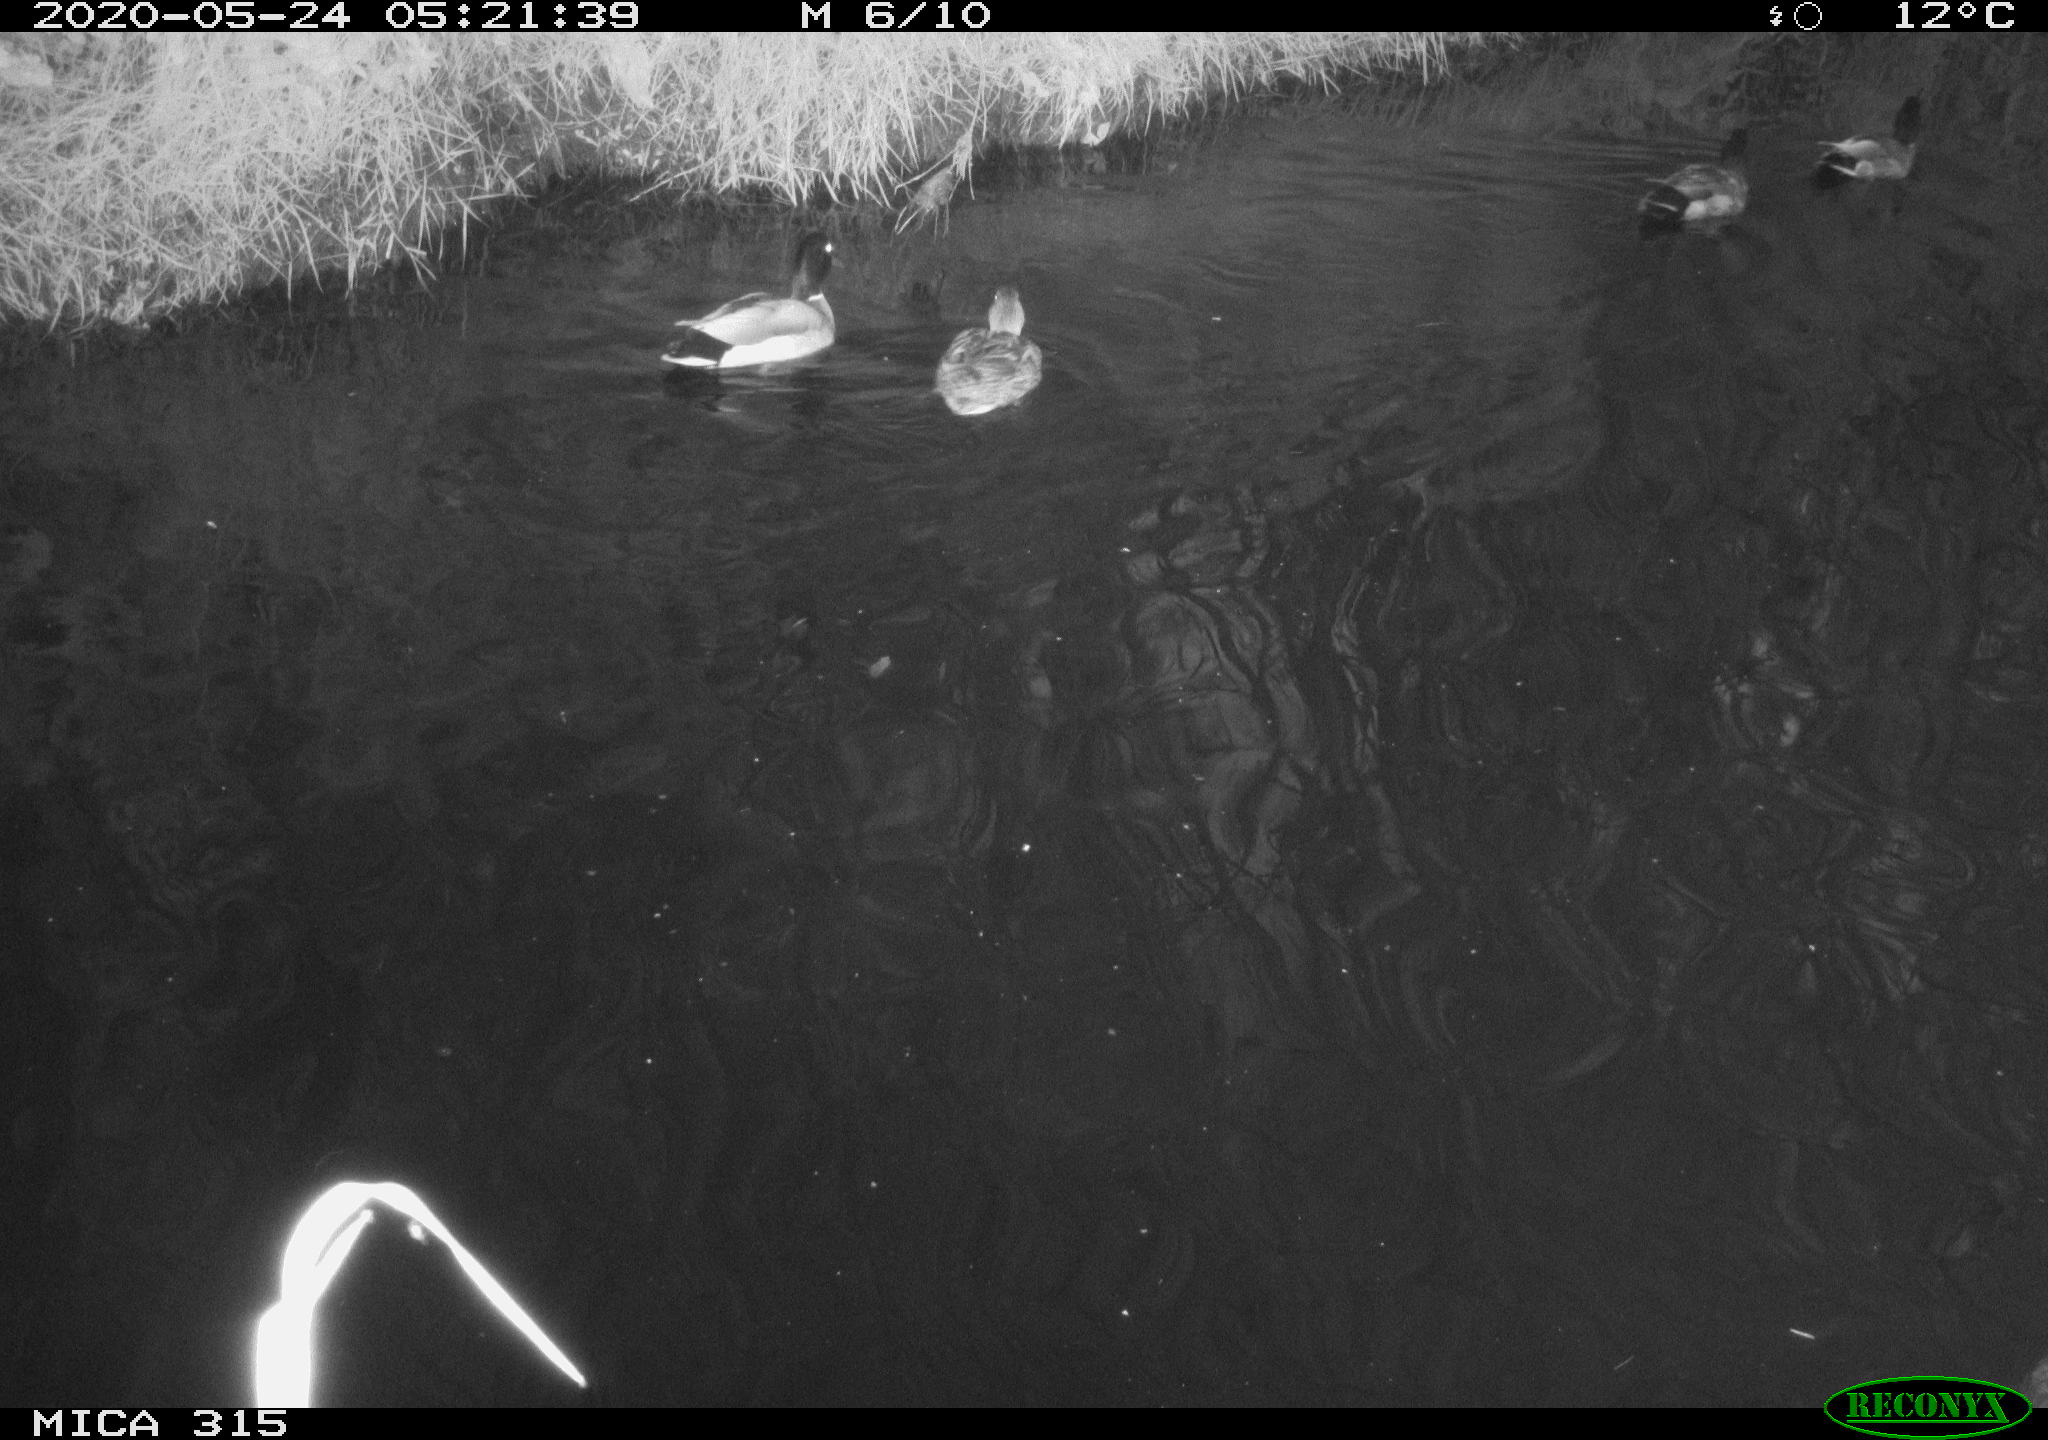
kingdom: Animalia
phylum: Chordata
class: Aves
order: Anseriformes
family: Anatidae
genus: Anas
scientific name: Anas platyrhynchos
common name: Mallard
